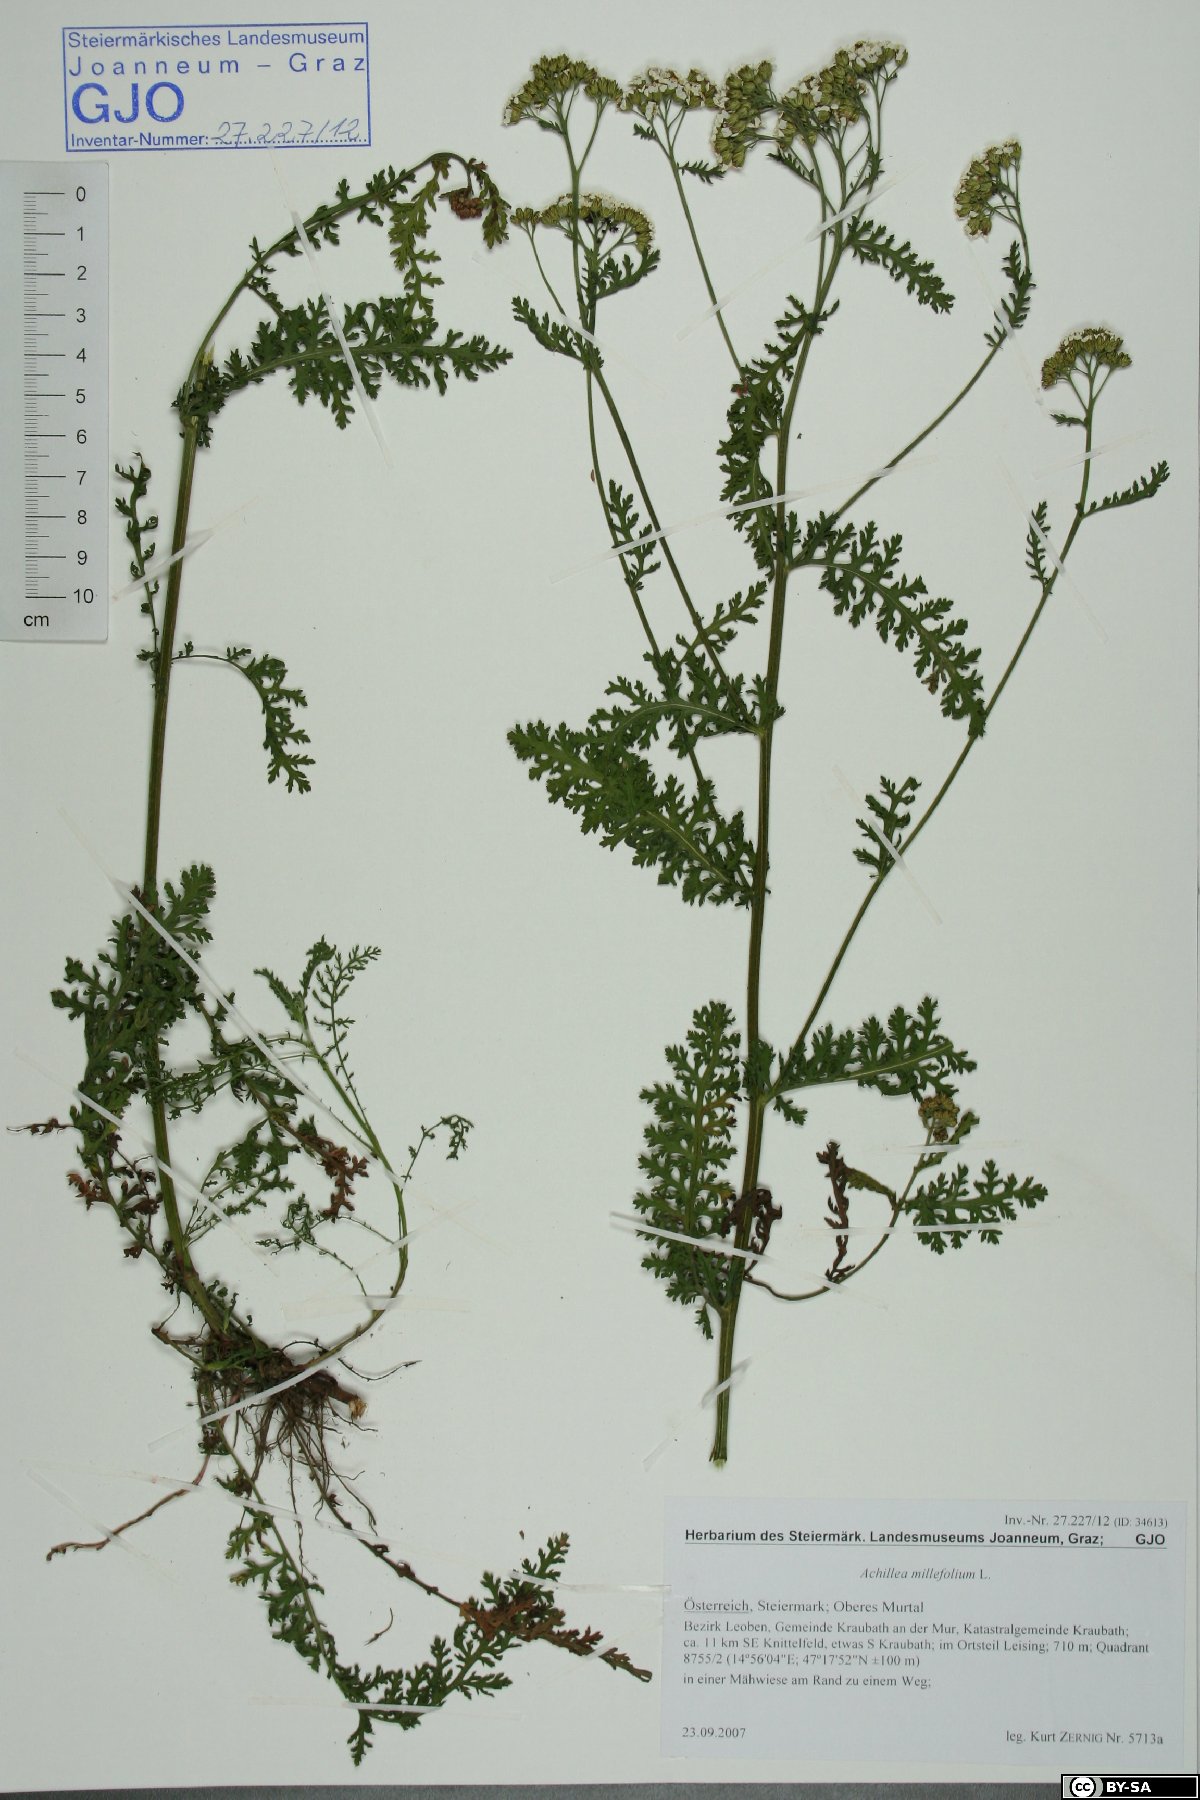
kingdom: Plantae
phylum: Tracheophyta
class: Magnoliopsida
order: Asterales
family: Asteraceae
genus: Achillea
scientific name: Achillea styriaca
